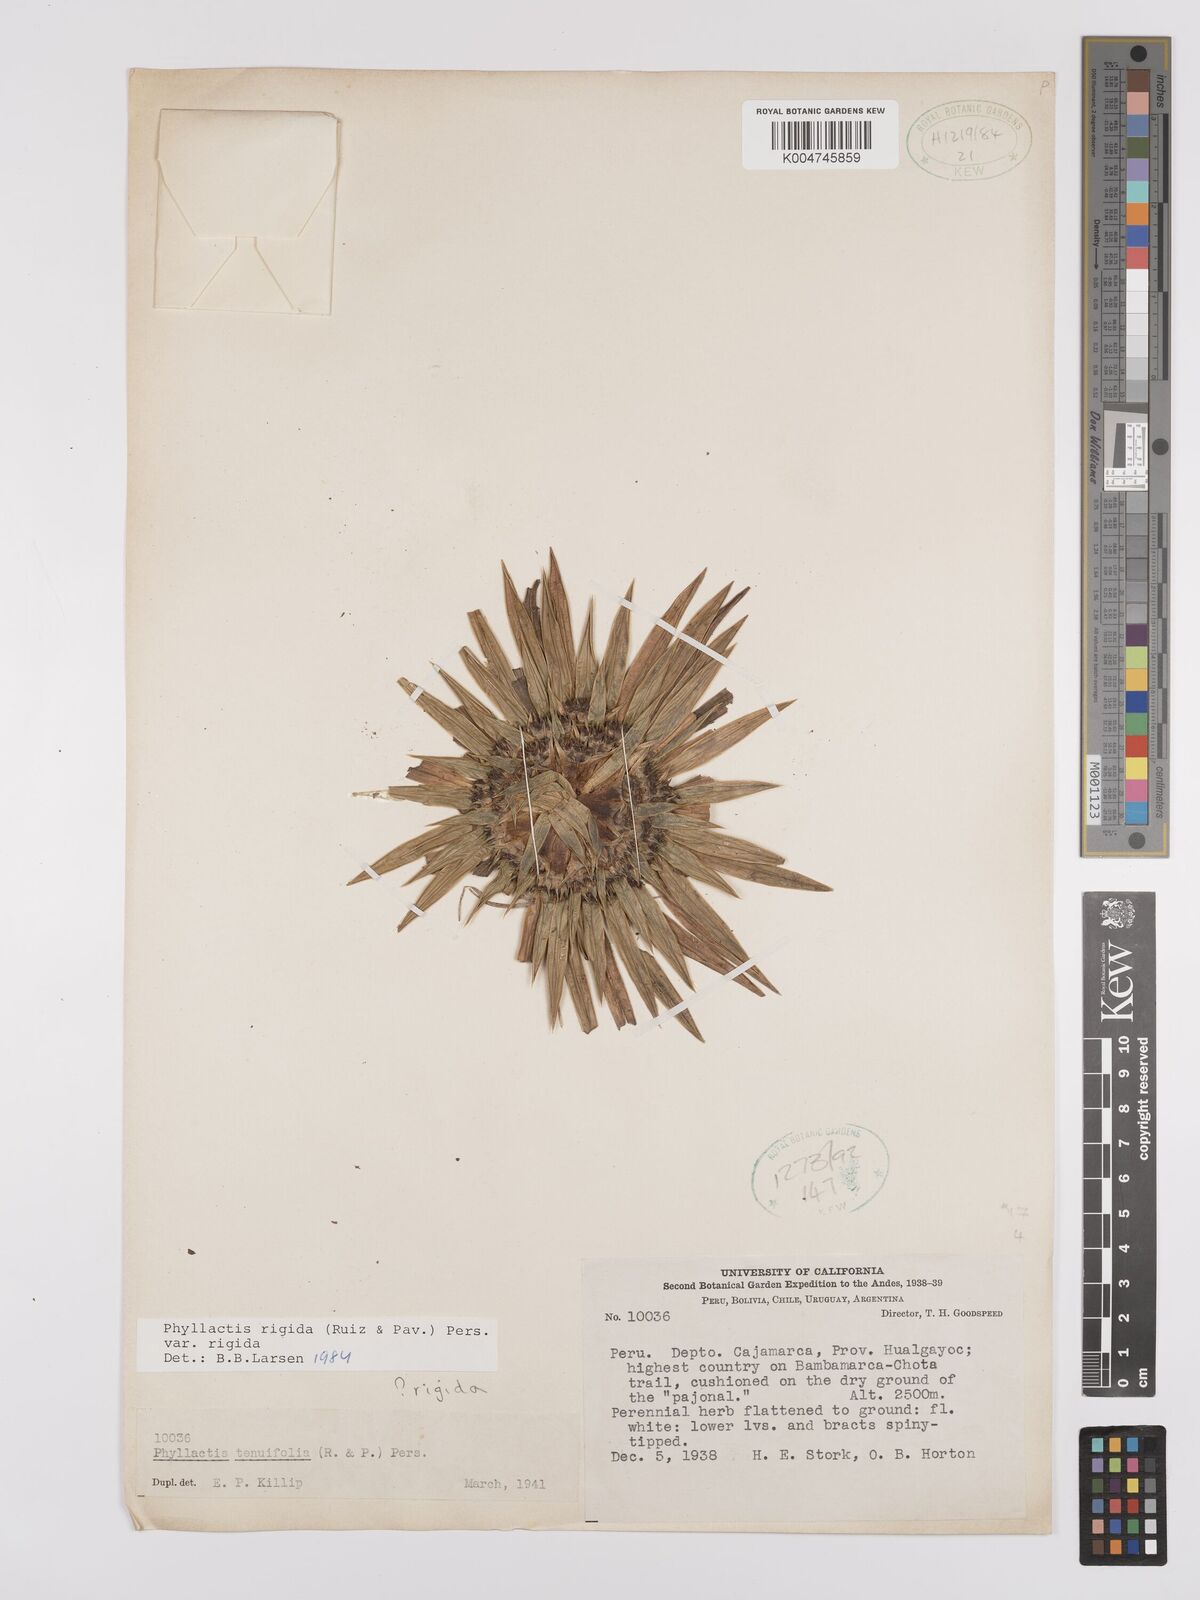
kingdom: Plantae
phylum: Tracheophyta
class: Magnoliopsida
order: Dipsacales
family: Caprifoliaceae
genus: Valeriana
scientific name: Valeriana rigida
